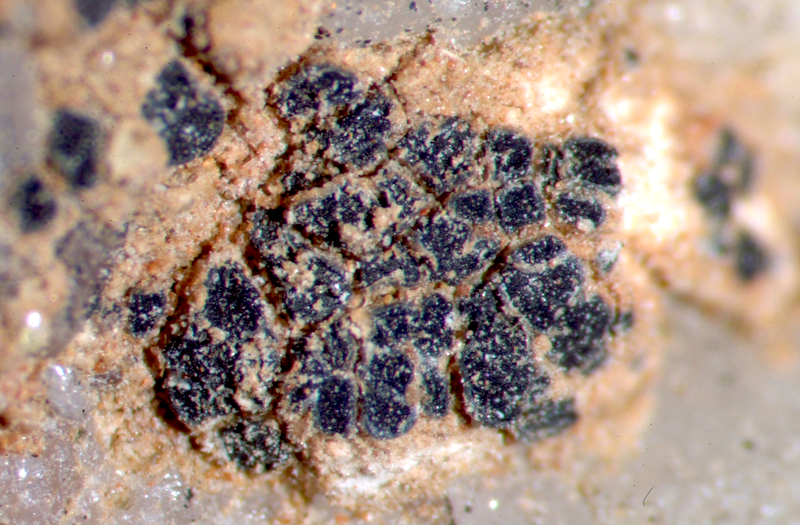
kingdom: Fungi
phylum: Ascomycota
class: Lichinomycetes
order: Lichinales
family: Peltulaceae
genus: Peltula
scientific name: Peltula inversa
